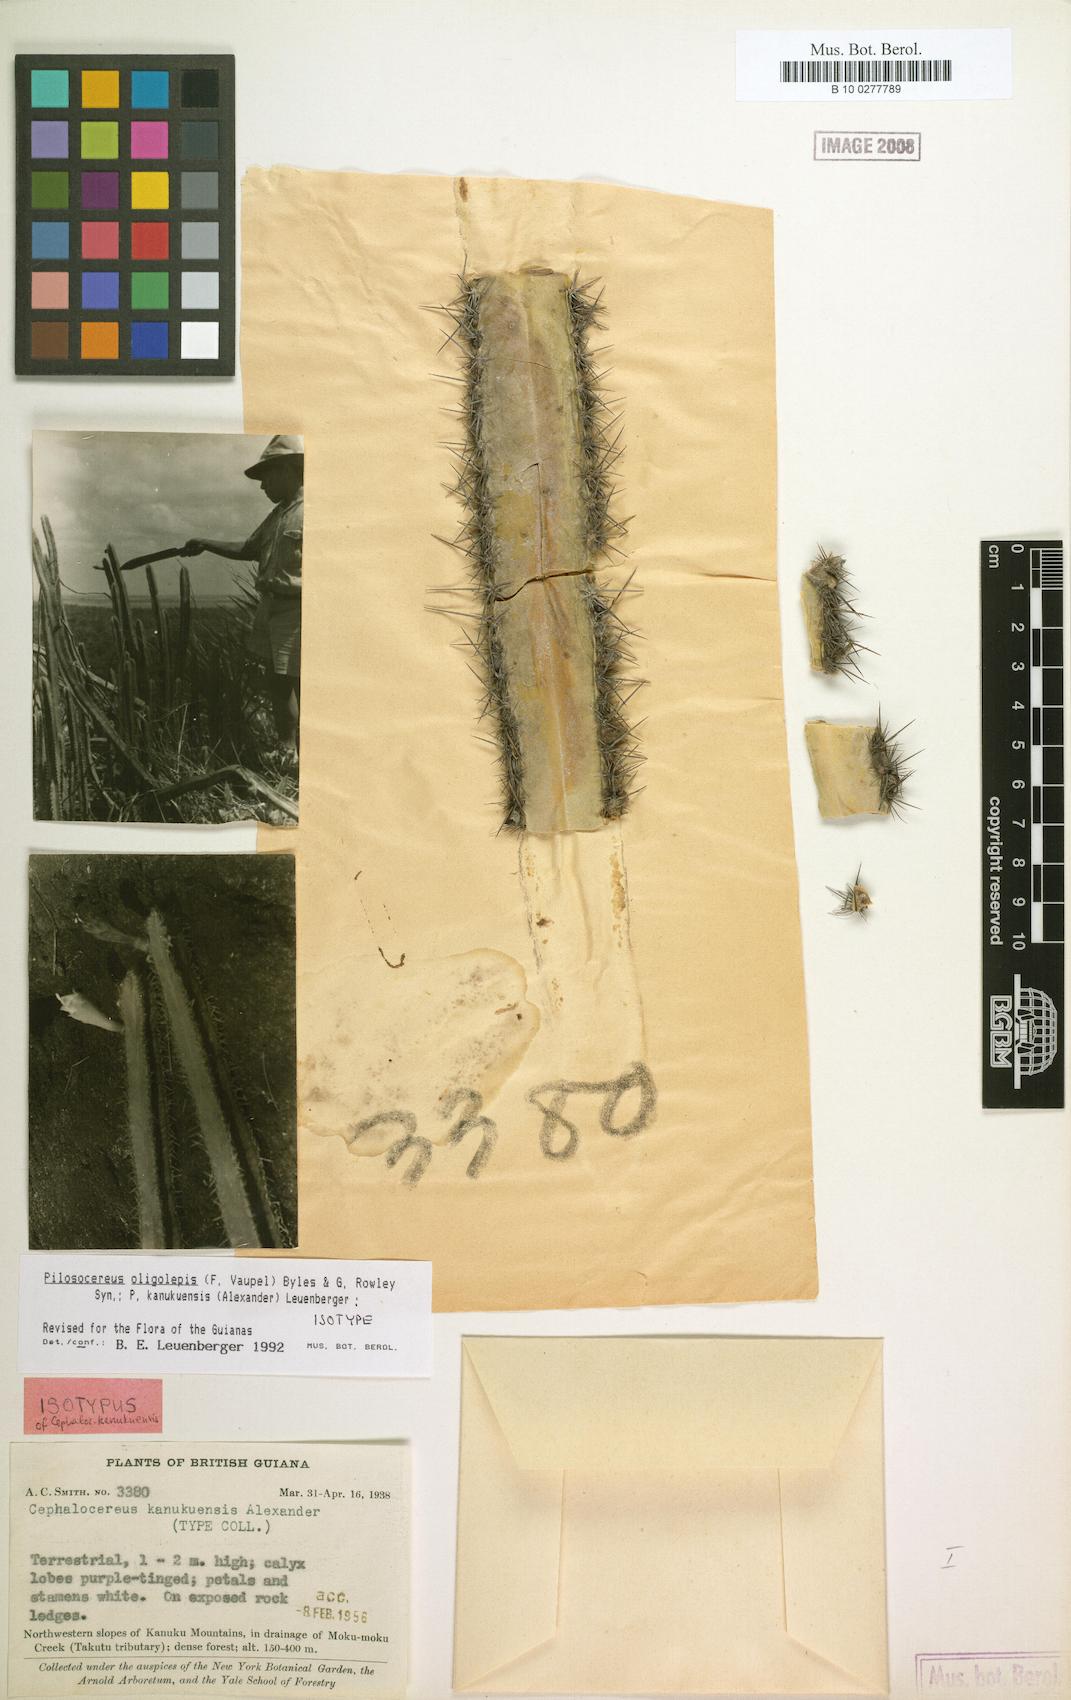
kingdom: Plantae
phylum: Tracheophyta
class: Magnoliopsida
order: Caryophyllales
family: Cactaceae
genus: Pilosocereus
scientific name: Pilosocereus oligolepis
